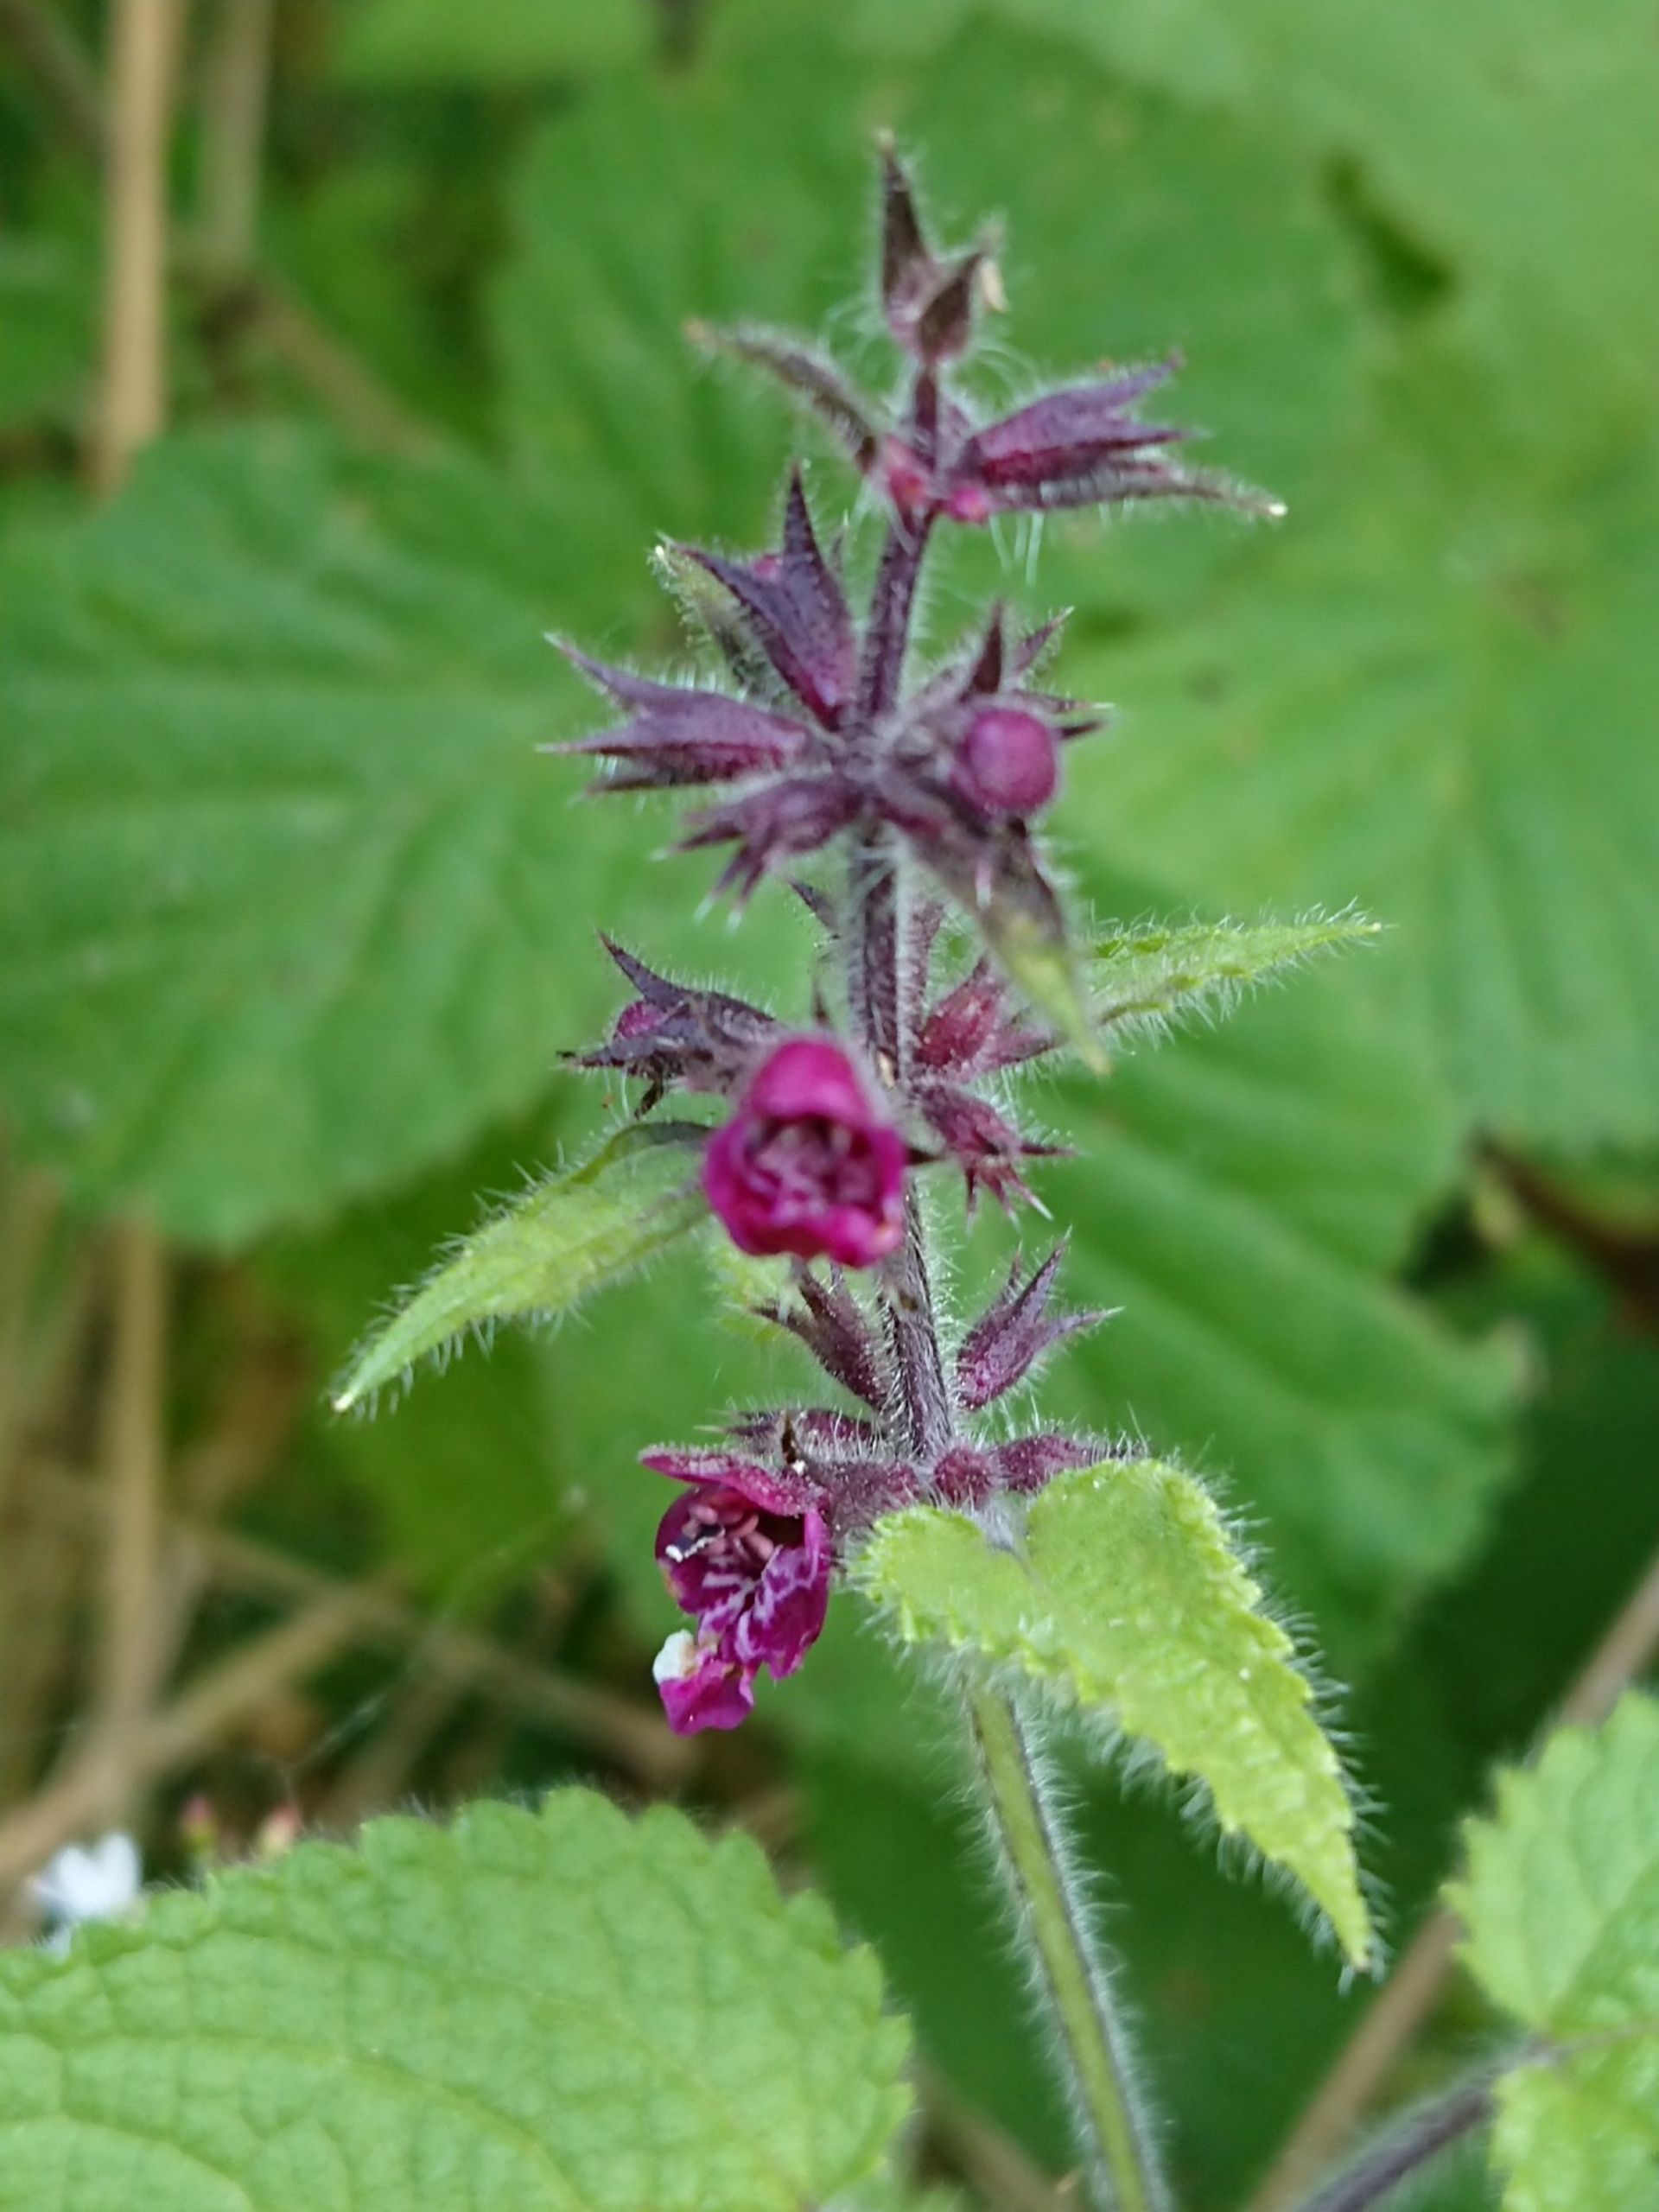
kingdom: Plantae
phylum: Tracheophyta
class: Magnoliopsida
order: Lamiales
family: Lamiaceae
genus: Stachys
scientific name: Stachys sylvatica
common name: Skov-galtetand
